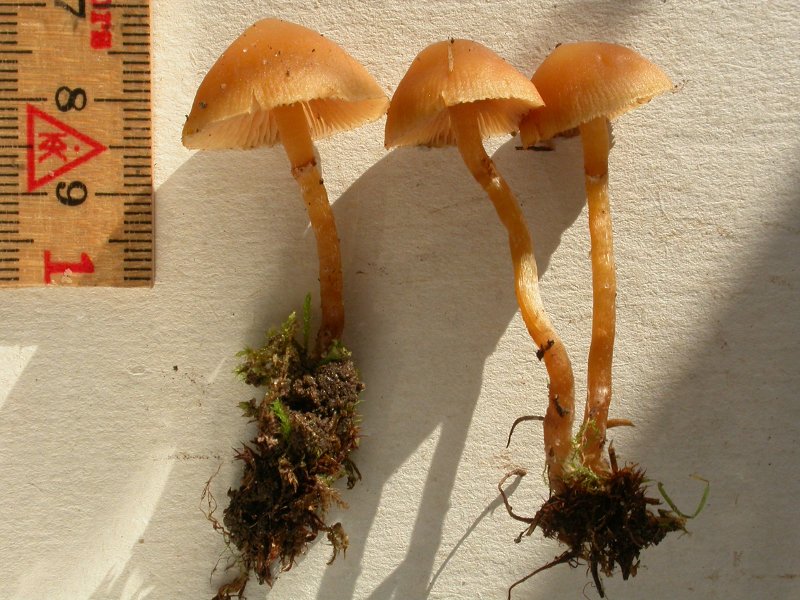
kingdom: Fungi
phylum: Basidiomycota
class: Agaricomycetes
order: Agaricales
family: Hymenogastraceae
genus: Galerina
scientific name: Galerina esteve-raventosii
